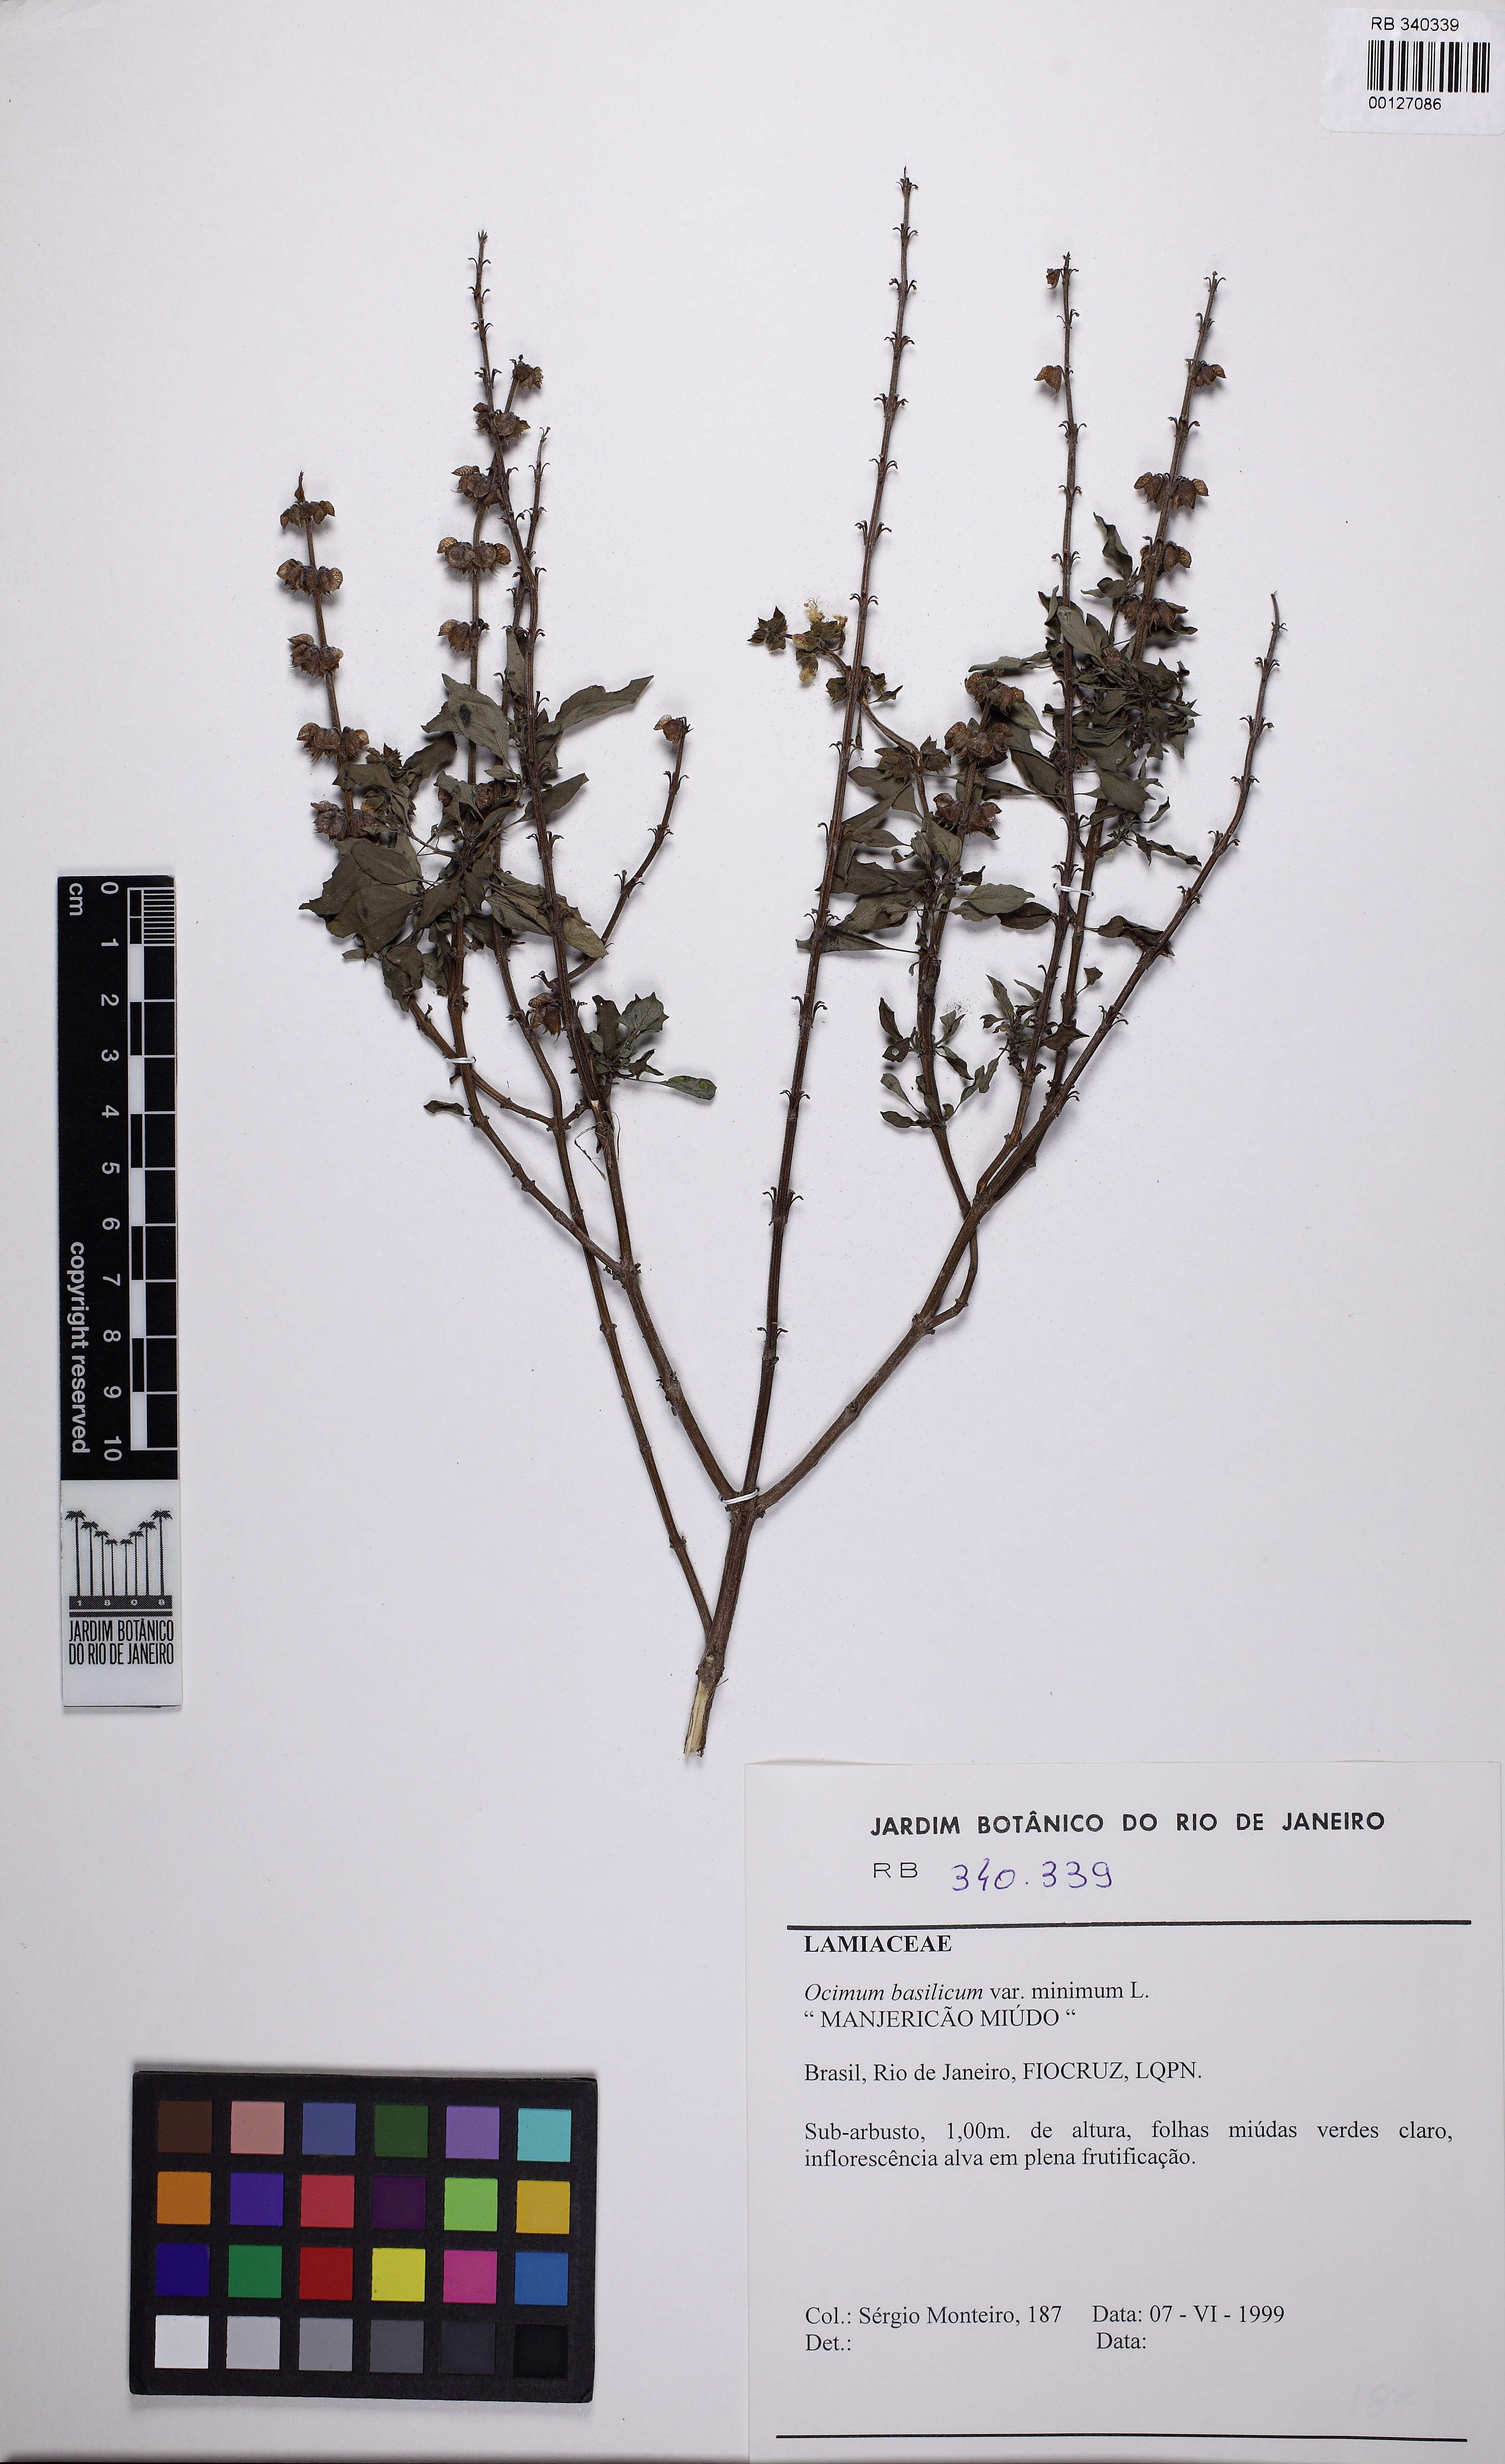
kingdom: Plantae
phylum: Tracheophyta
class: Magnoliopsida
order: Lamiales
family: Lamiaceae
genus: Ocimum
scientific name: Ocimum basilicum
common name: Sweet basil
